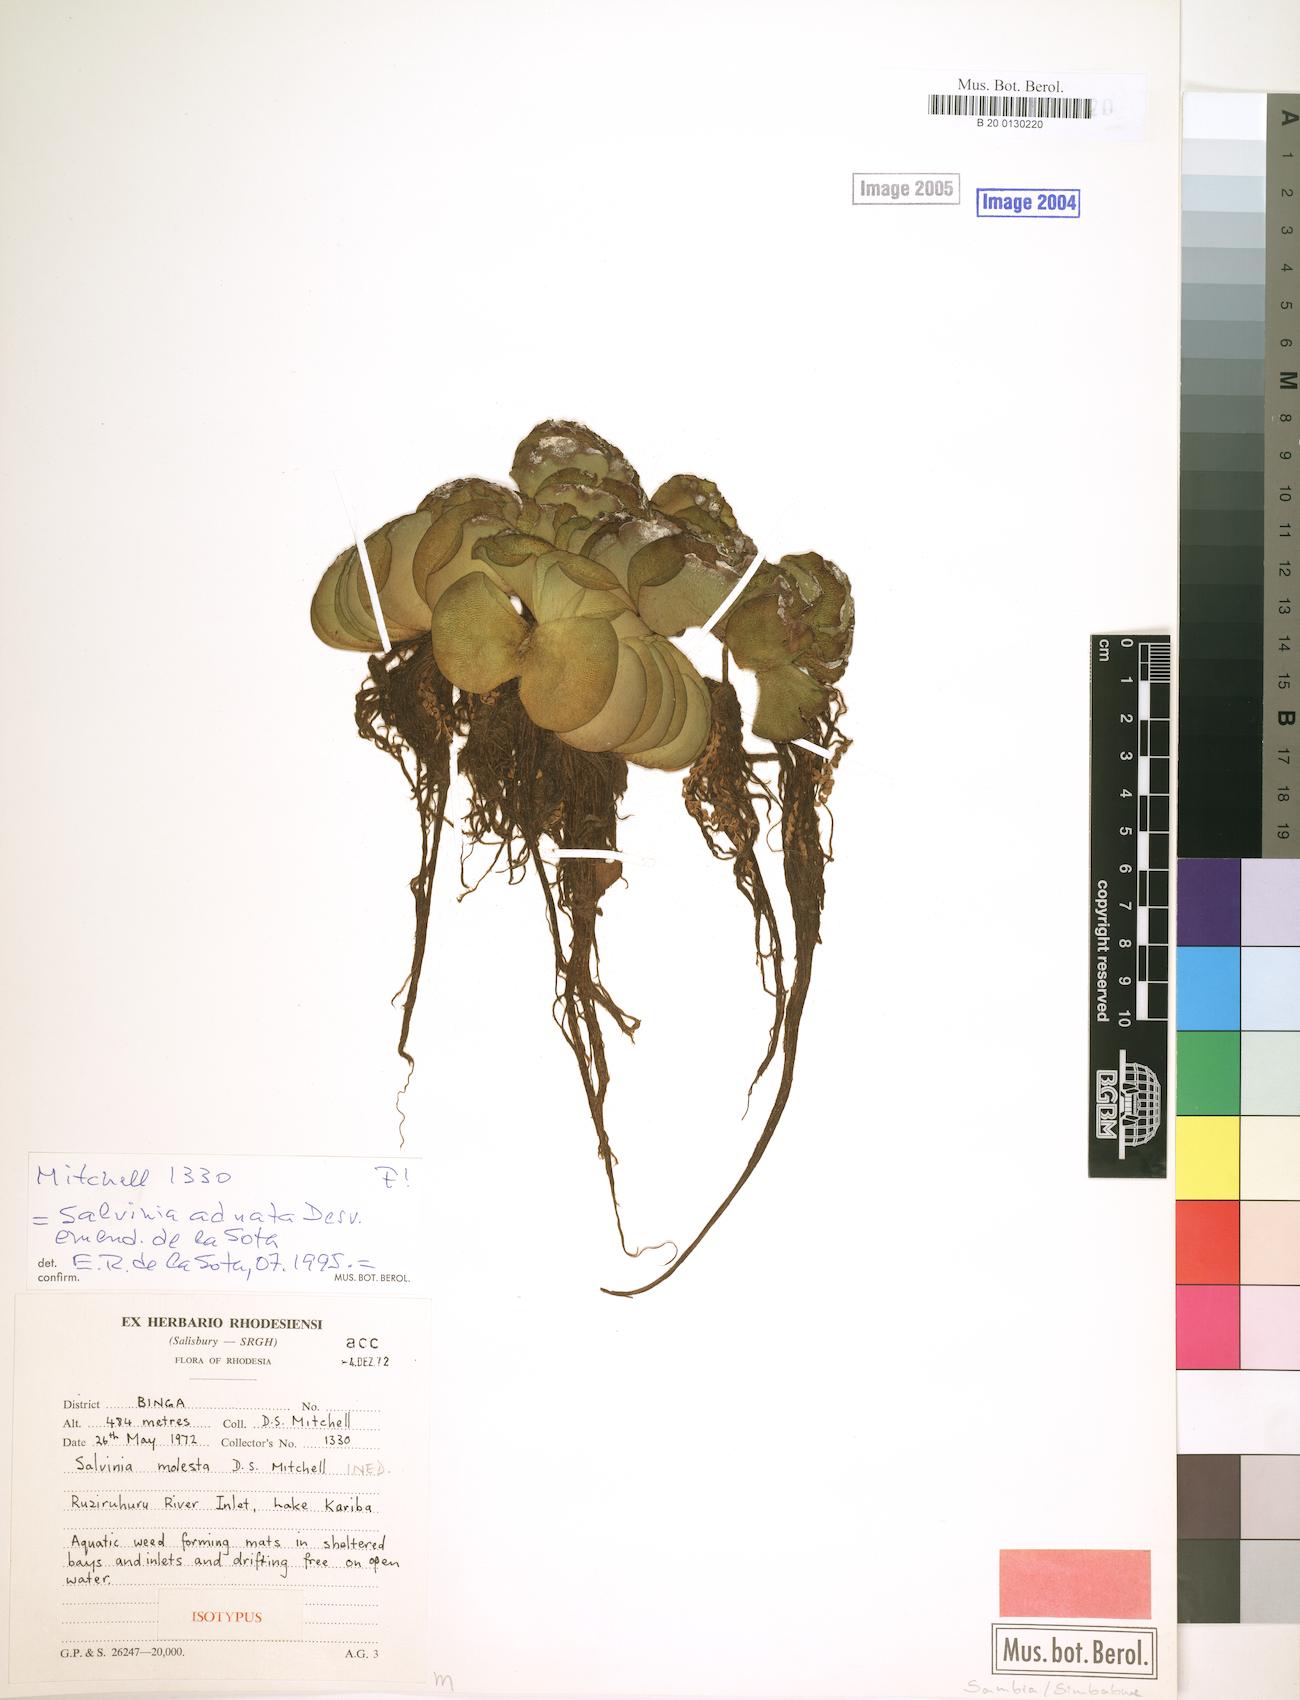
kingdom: Plantae
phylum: Tracheophyta
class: Polypodiopsida
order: Salviniales
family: Salviniaceae
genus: Salvinia
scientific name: Salvinia molesta
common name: Kariba weed
